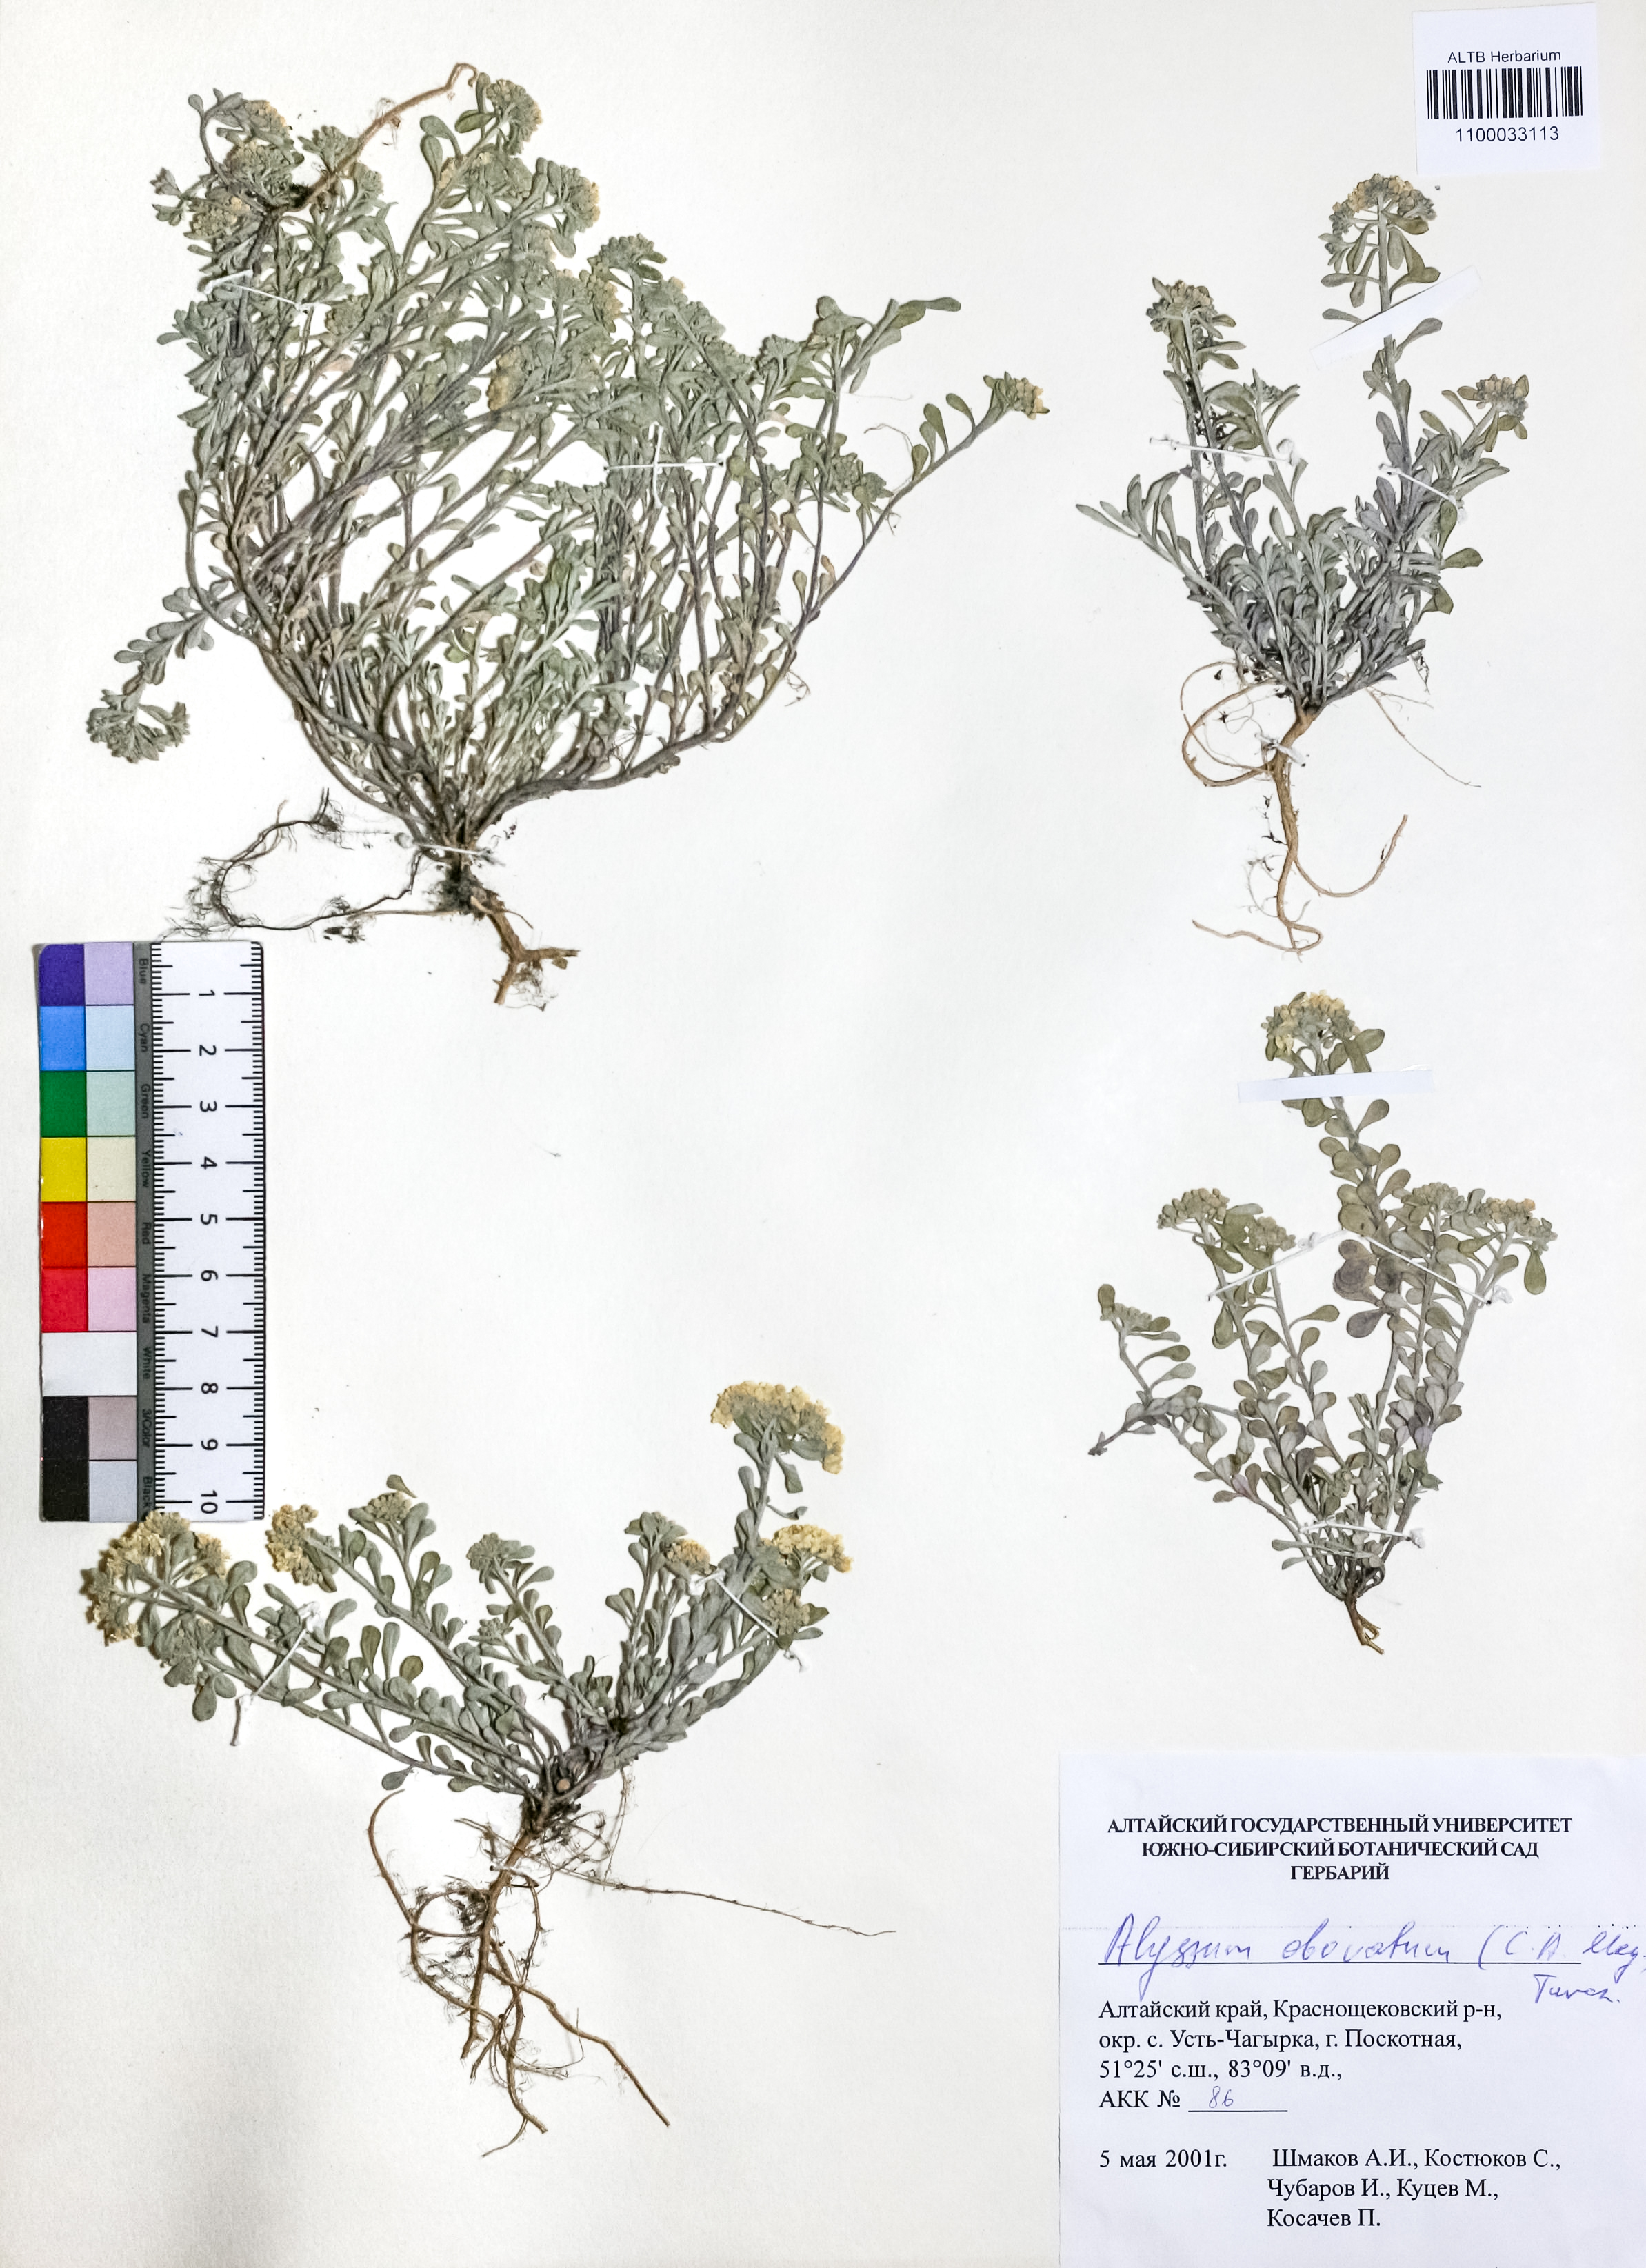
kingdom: Plantae
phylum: Tracheophyta
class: Magnoliopsida
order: Brassicales
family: Brassicaceae
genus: Odontarrhena
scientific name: Odontarrhena obovata
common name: American alyssum
